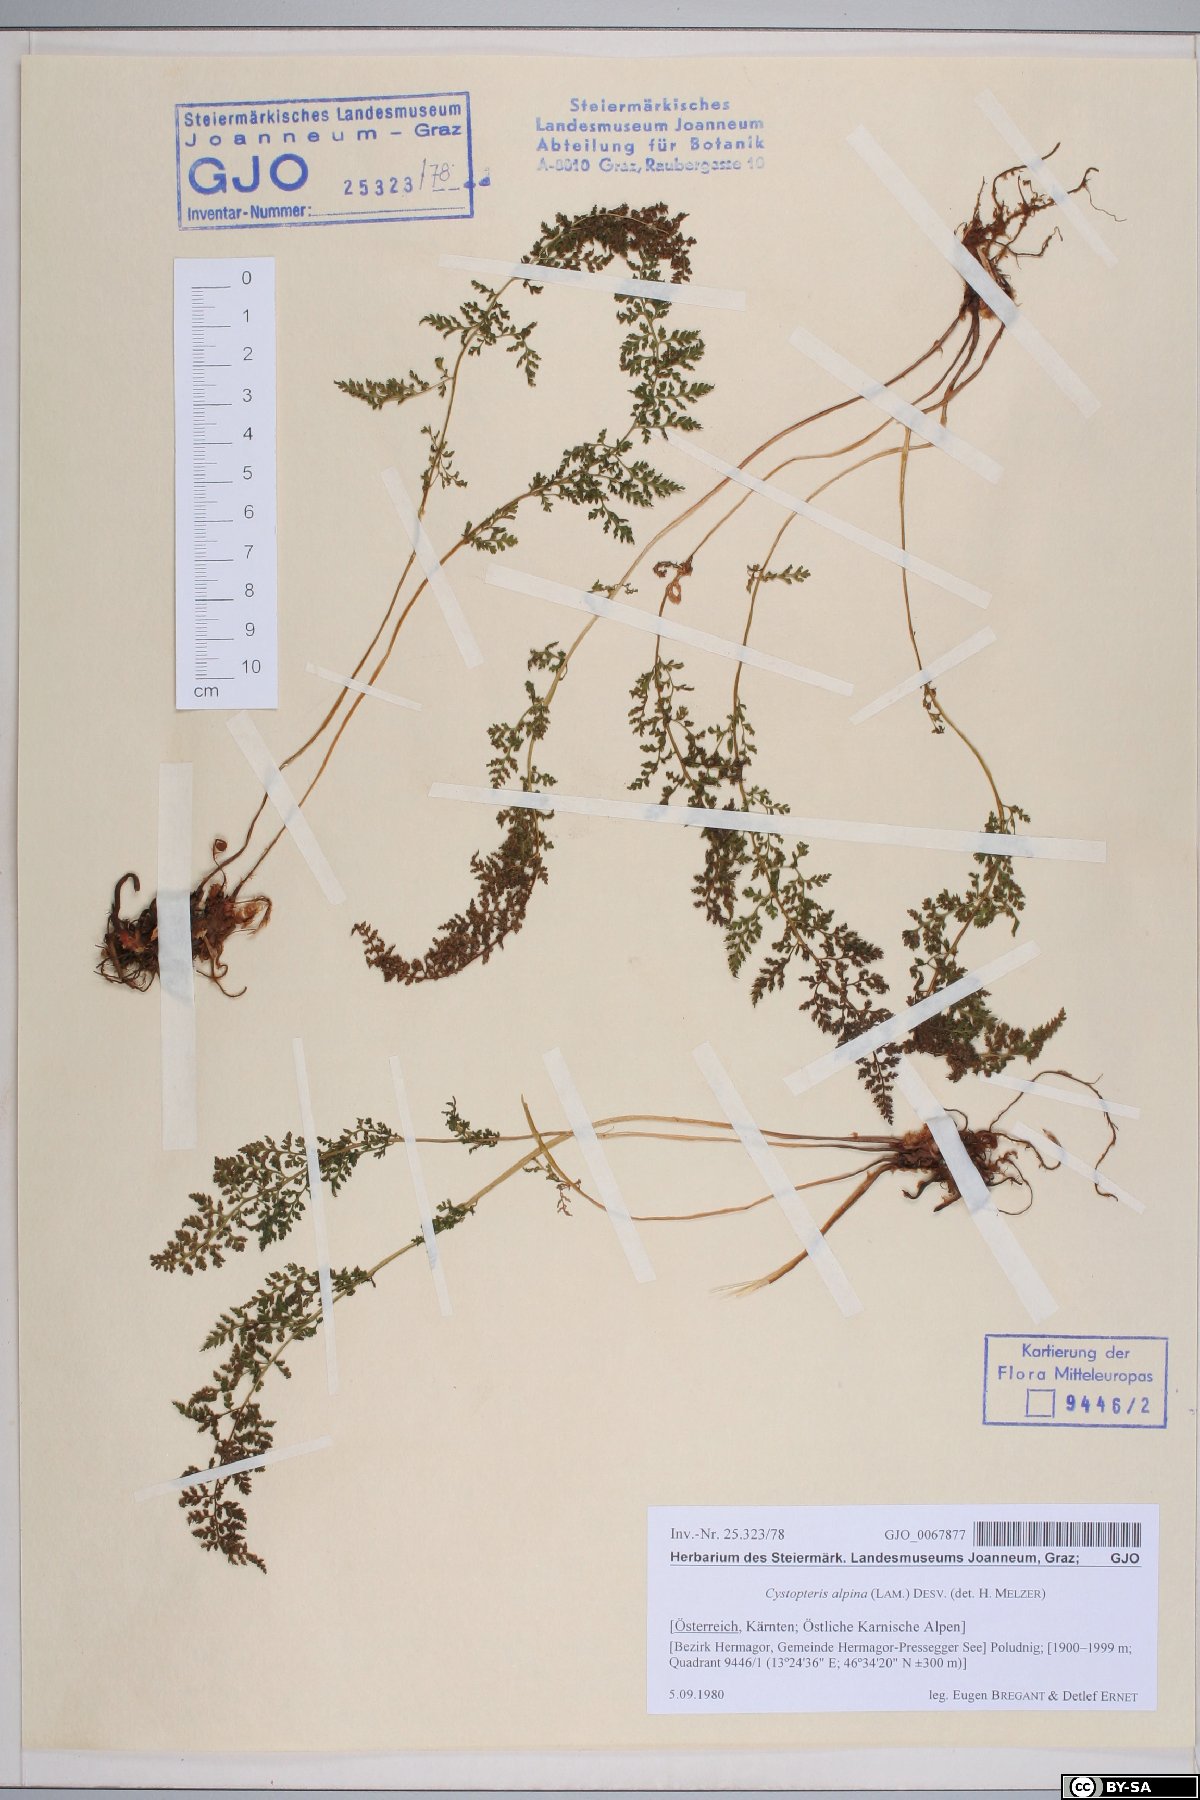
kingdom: Plantae
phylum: Tracheophyta
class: Polypodiopsida
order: Polypodiales
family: Cystopteridaceae
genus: Cystopteris
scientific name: Cystopteris alpina
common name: Alpine bladder-fern
